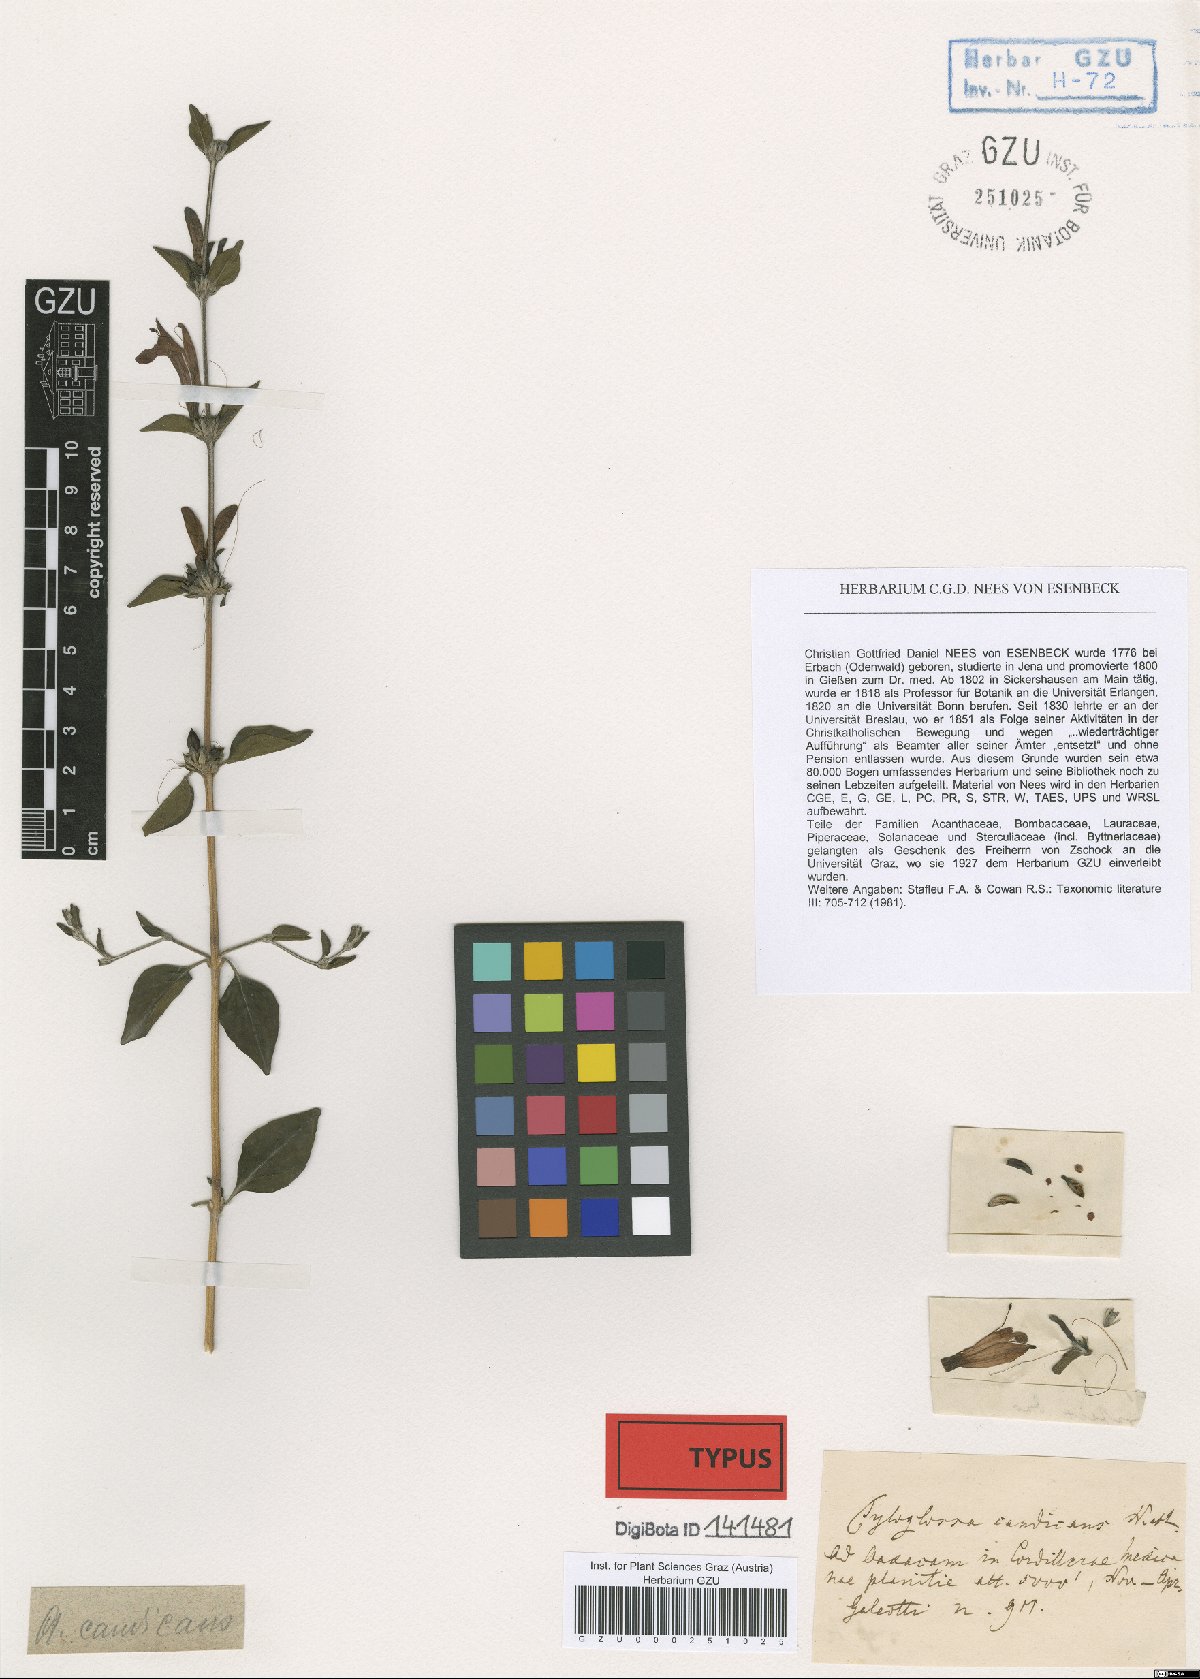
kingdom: Plantae
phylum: Tracheophyta
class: Magnoliopsida
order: Lamiales
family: Acanthaceae
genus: Dianthera
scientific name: Dianthera candicans
